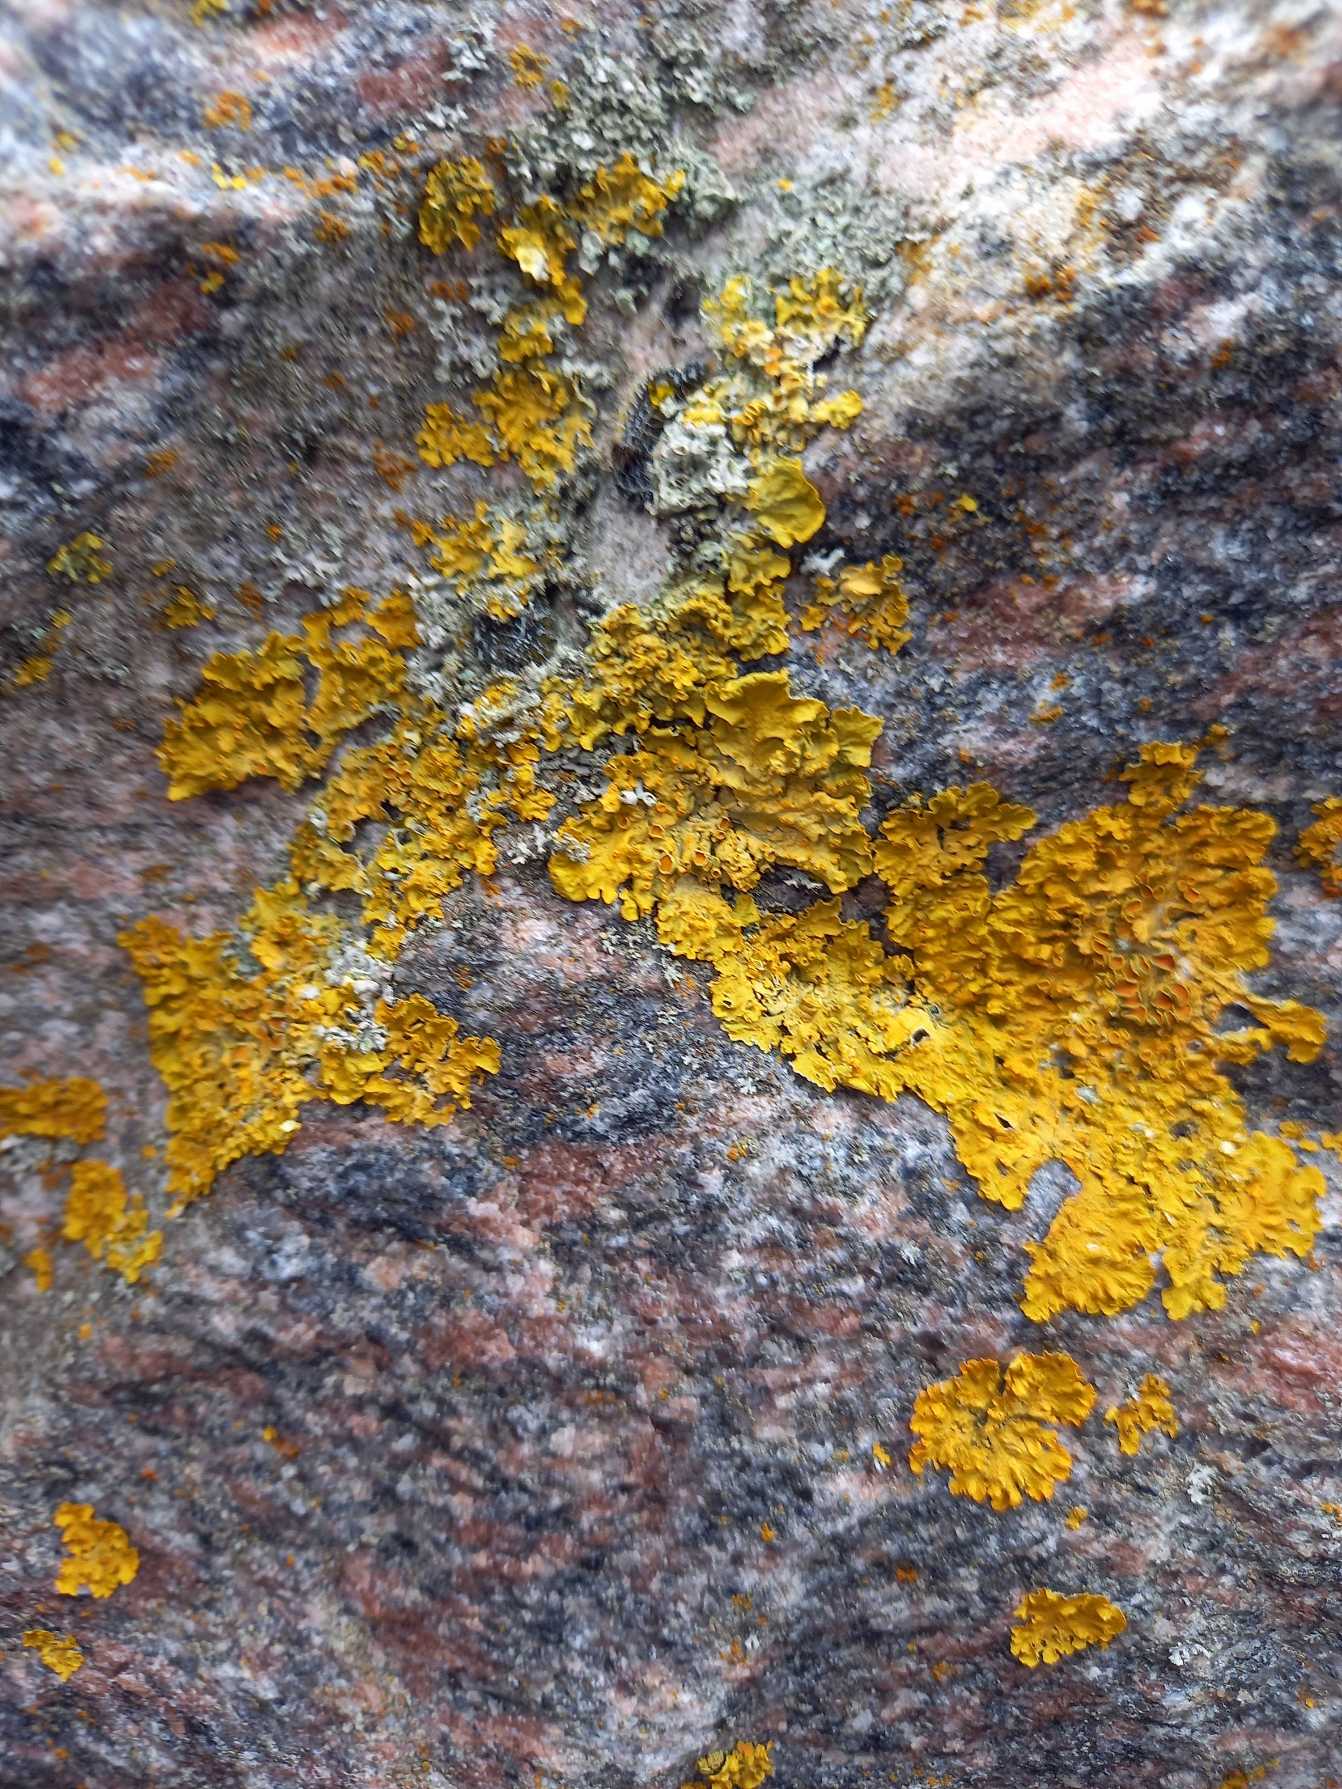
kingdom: Fungi
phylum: Ascomycota
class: Lecanoromycetes
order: Teloschistales
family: Teloschistaceae
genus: Xanthoria
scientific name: Xanthoria parietina
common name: Almindelig væggelav
